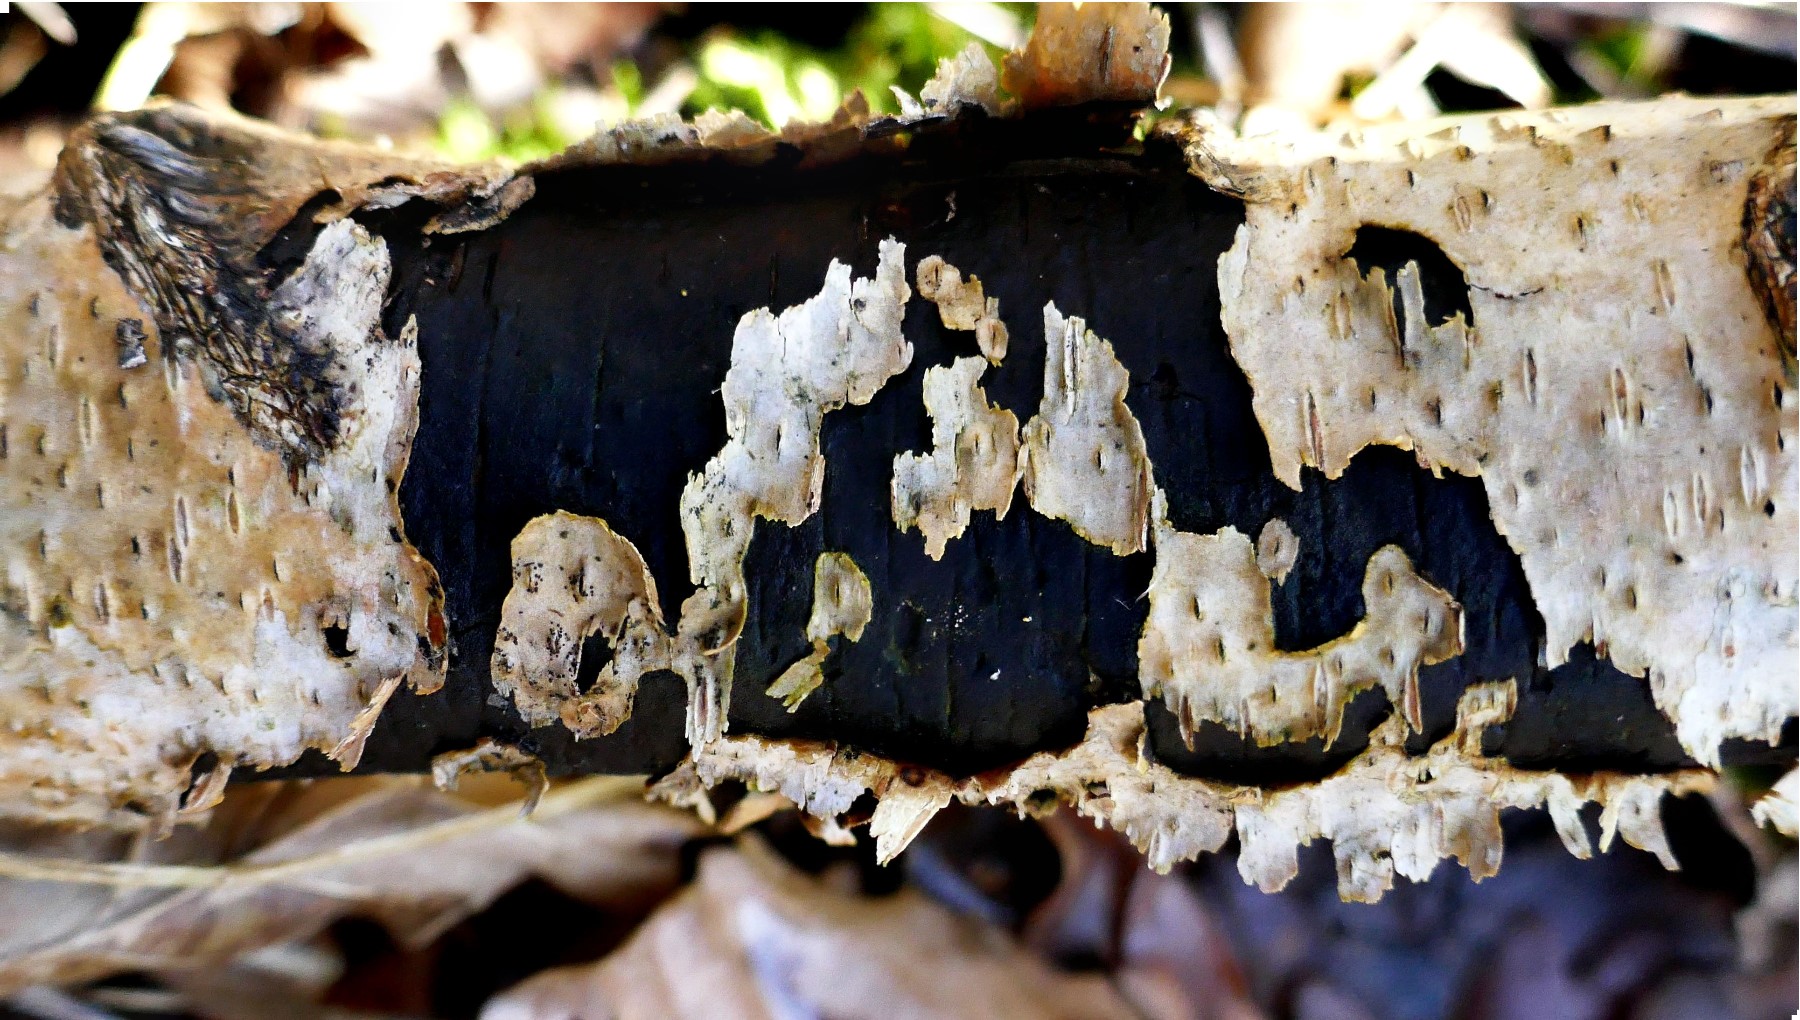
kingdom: Fungi
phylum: Ascomycota
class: Sordariomycetes
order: Xylariales
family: Diatrypaceae
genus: Diatrype
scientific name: Diatrype
